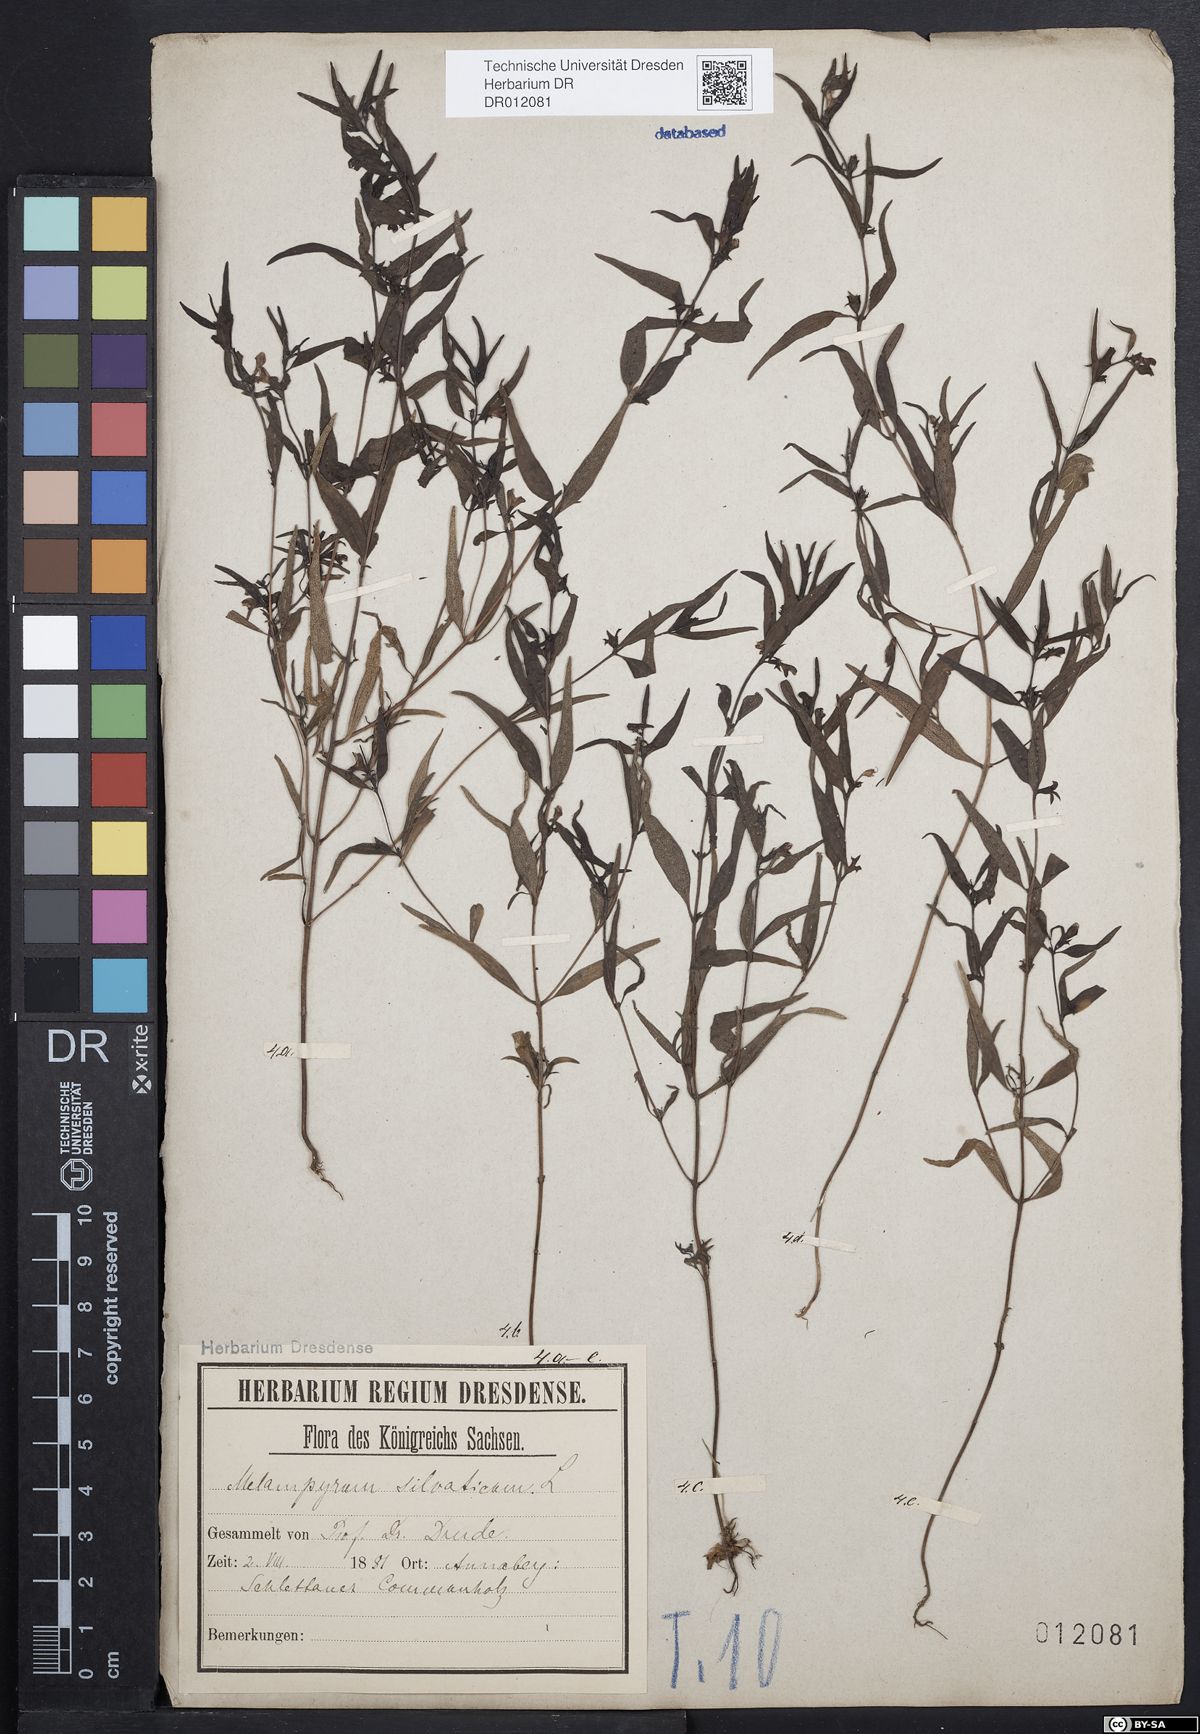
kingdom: Plantae
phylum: Tracheophyta
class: Magnoliopsida
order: Lamiales
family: Orobanchaceae
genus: Melampyrum
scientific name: Melampyrum sylvaticum
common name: Small cow-wheat
